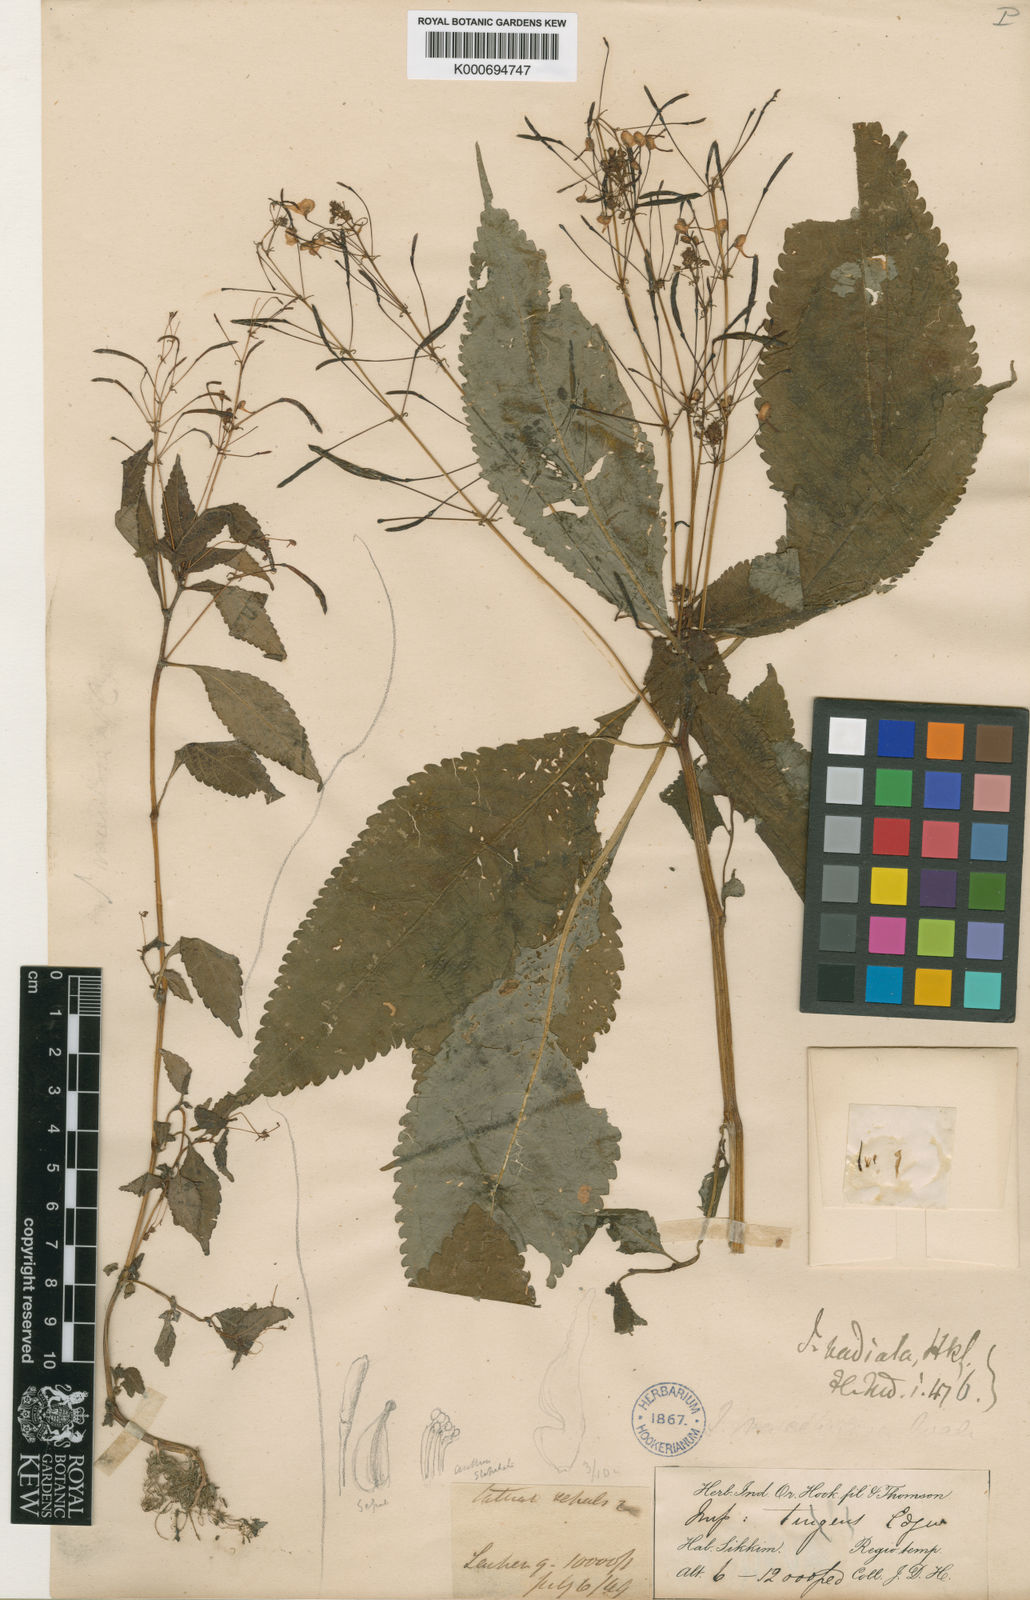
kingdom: Plantae
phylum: Tracheophyta
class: Magnoliopsida
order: Ericales
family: Balsaminaceae
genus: Impatiens
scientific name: Impatiens radiata
